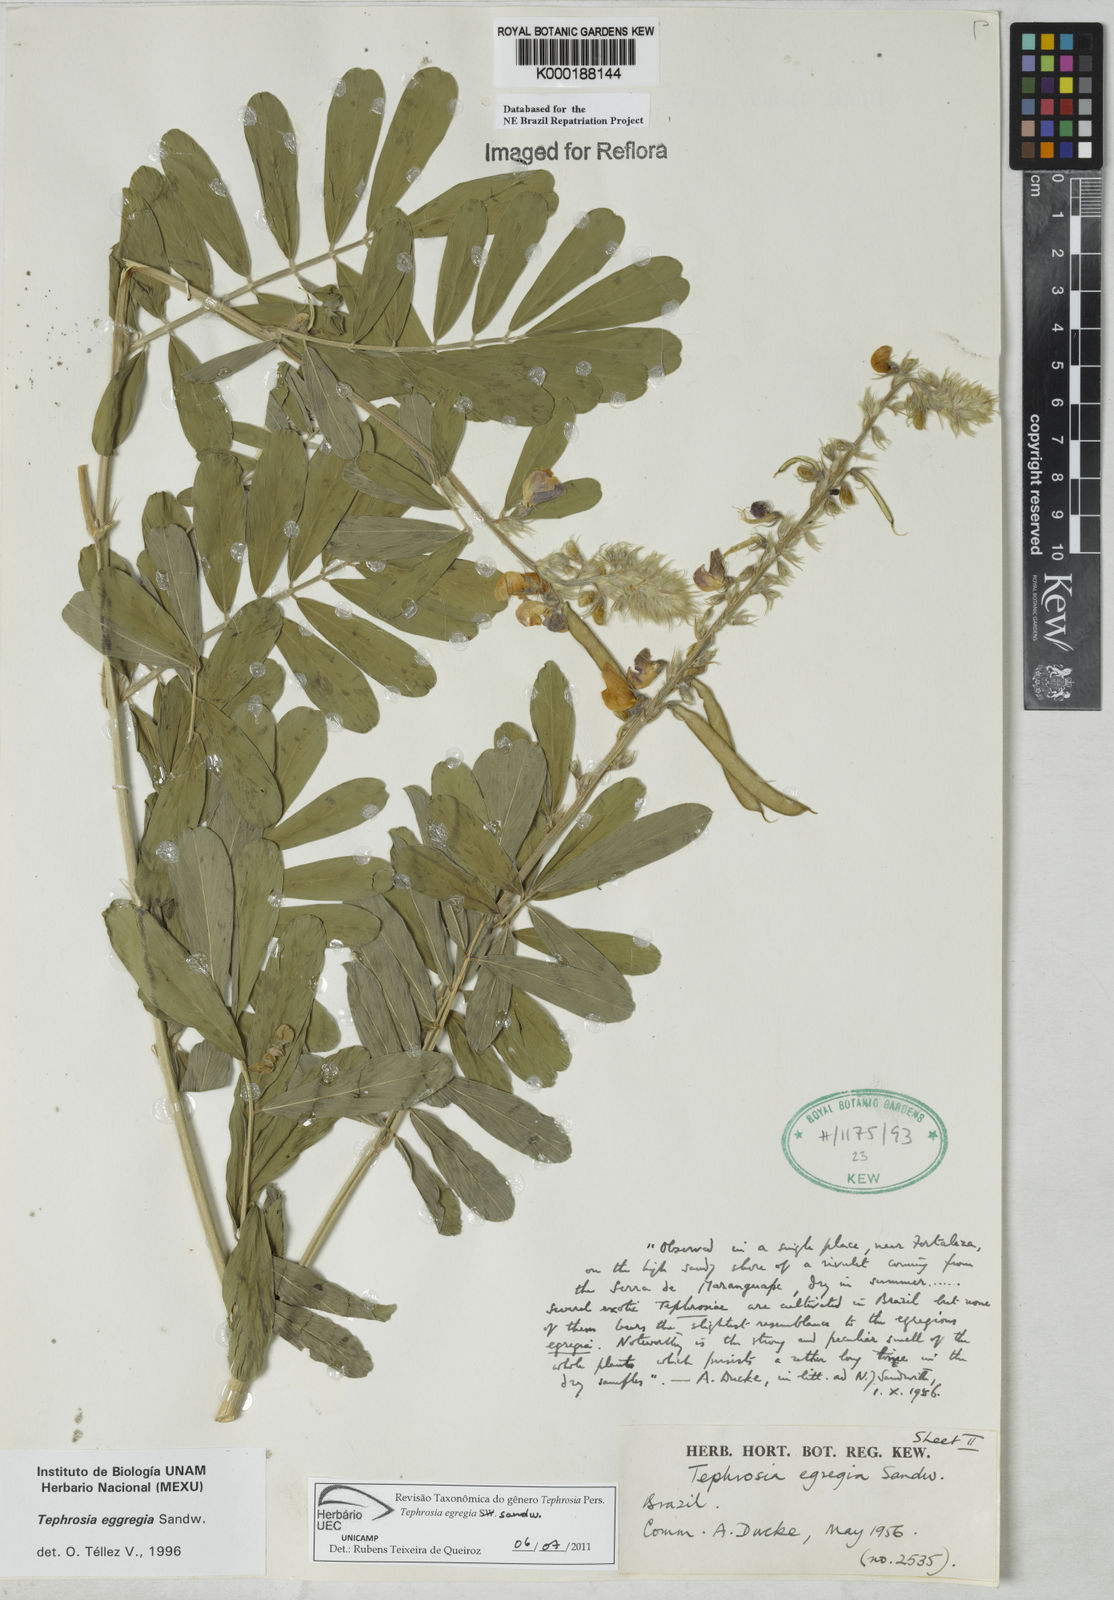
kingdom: Plantae
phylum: Tracheophyta
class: Magnoliopsida
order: Fabales
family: Fabaceae
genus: Tephrosia
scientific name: Tephrosia egregia
